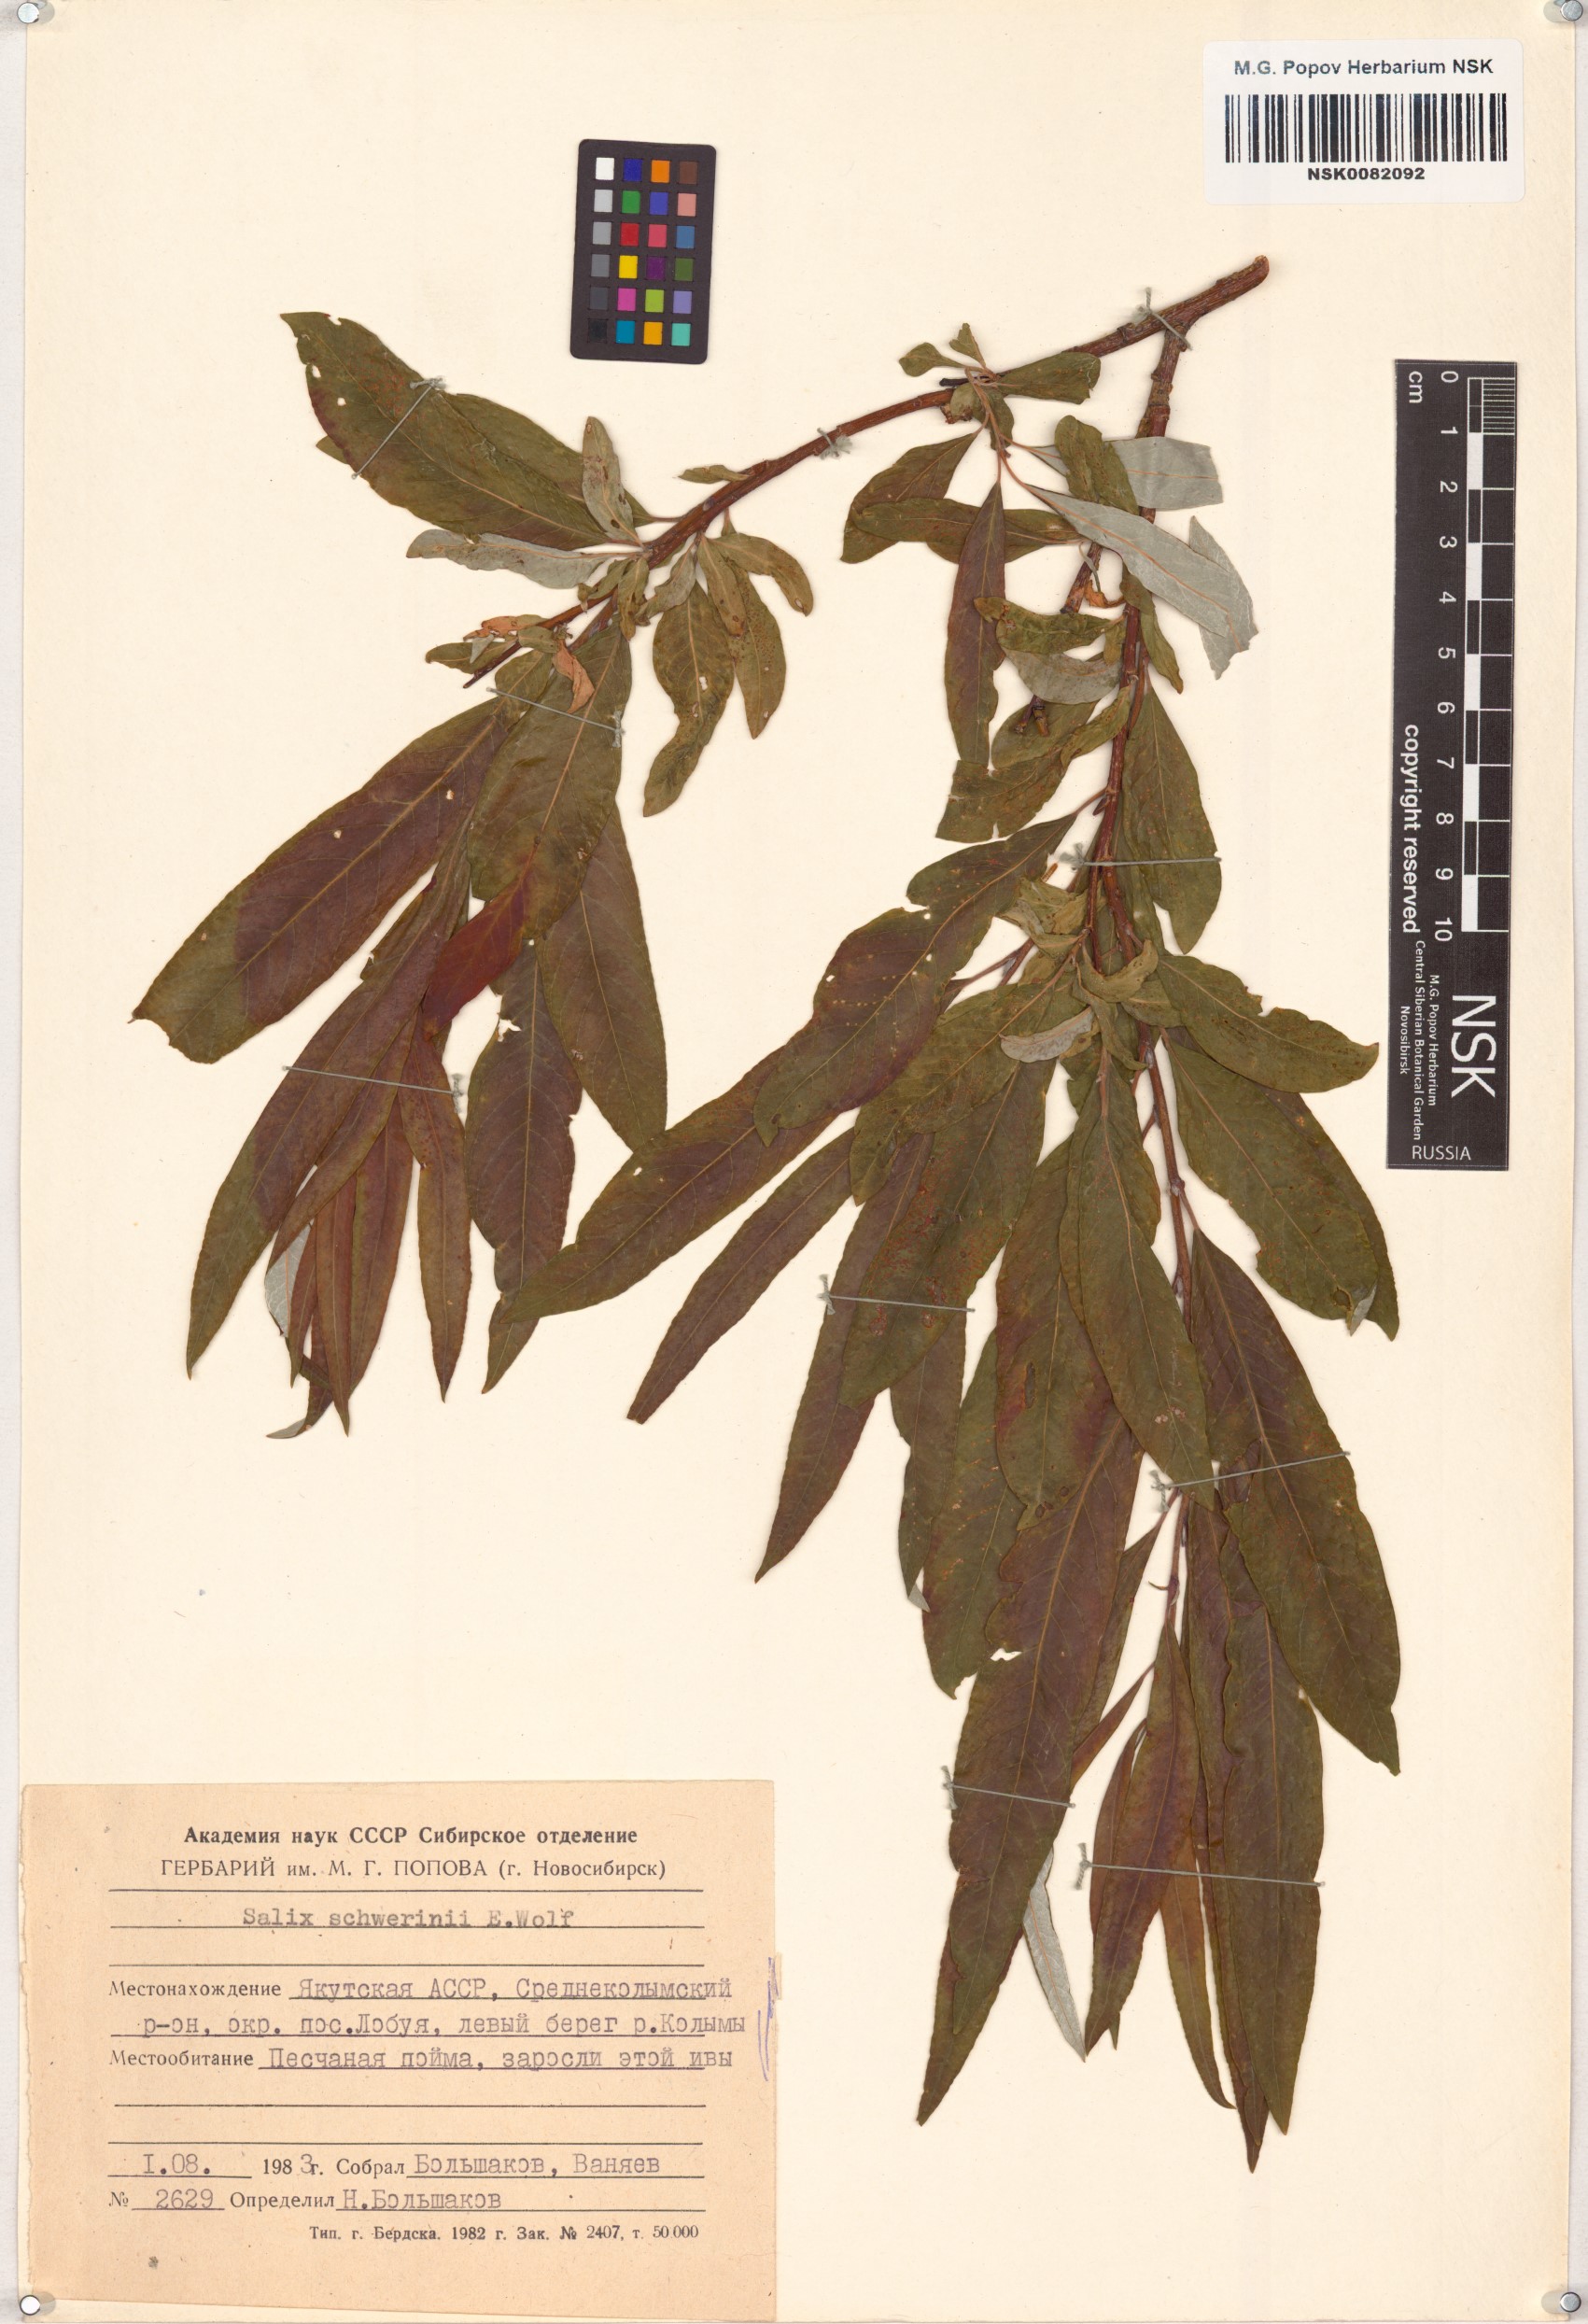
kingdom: Plantae
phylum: Tracheophyta
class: Magnoliopsida
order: Malpighiales
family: Salicaceae
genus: Salix
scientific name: Salix schwerinii
